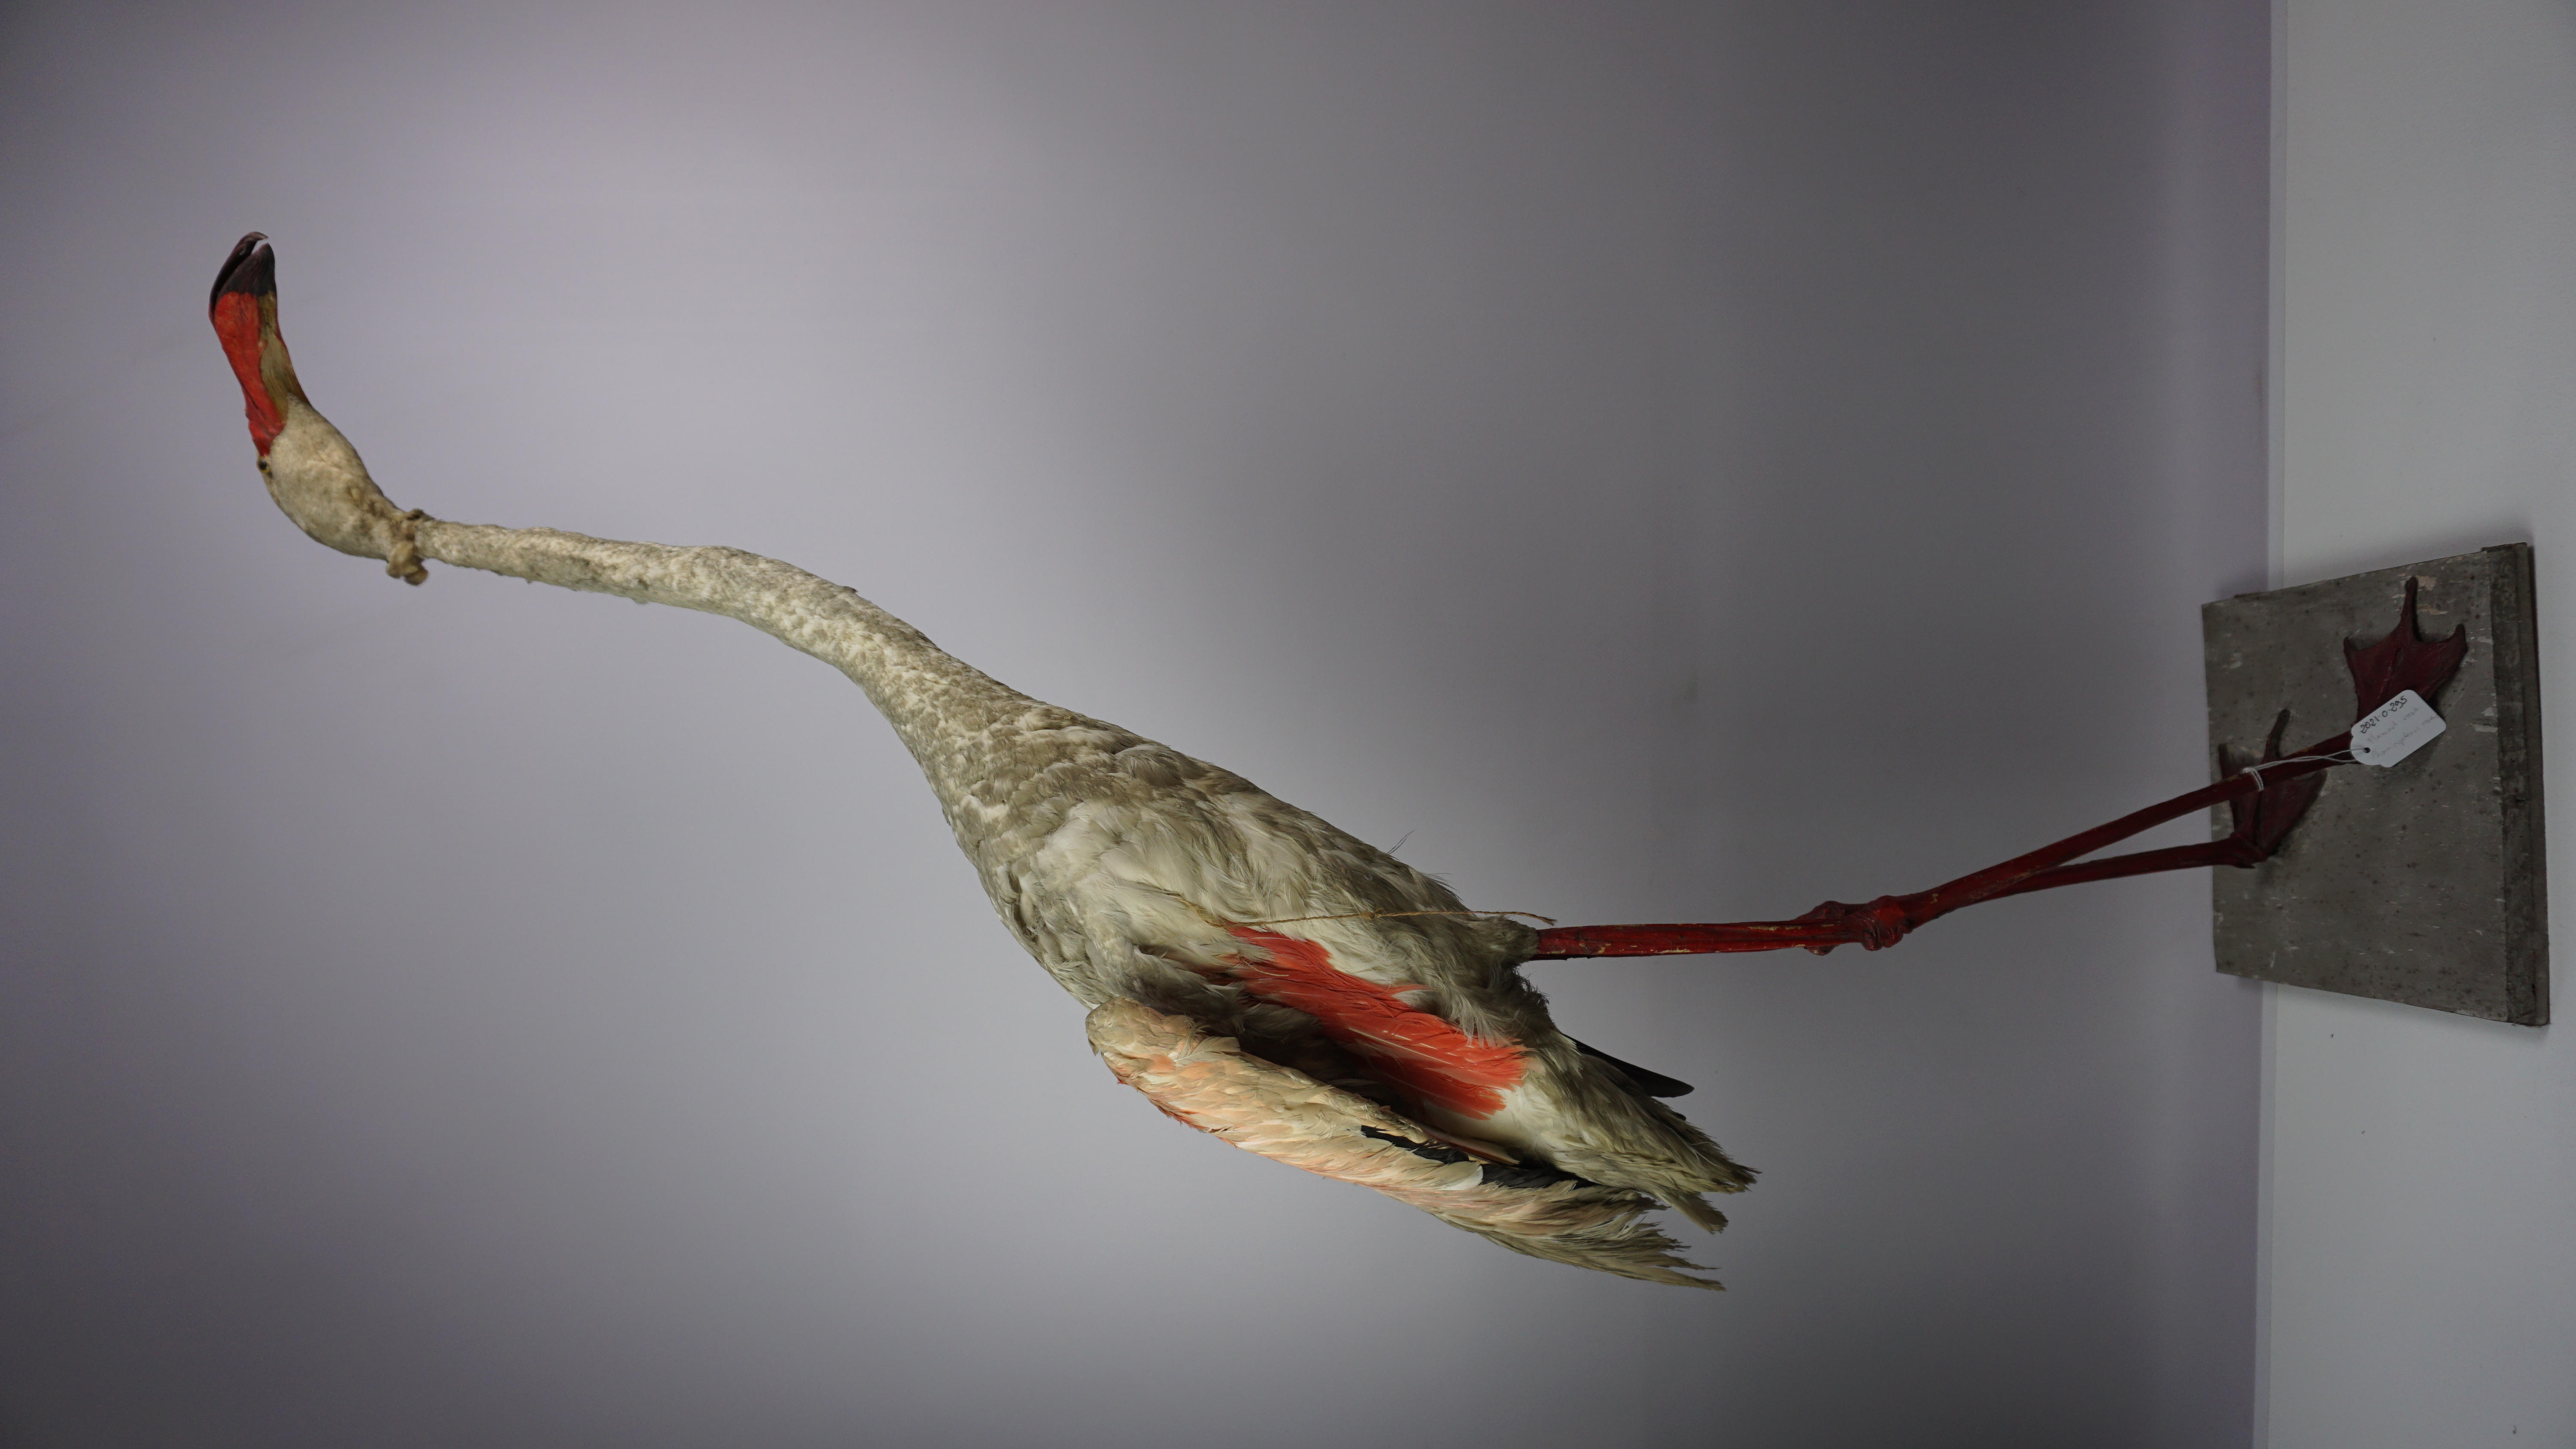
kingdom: Animalia
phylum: Chordata
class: Aves
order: Phoenicopteriformes
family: Phoenicopteridae
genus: Phoenicopterus
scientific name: Phoenicopterus roseus
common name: Greater flamingo
